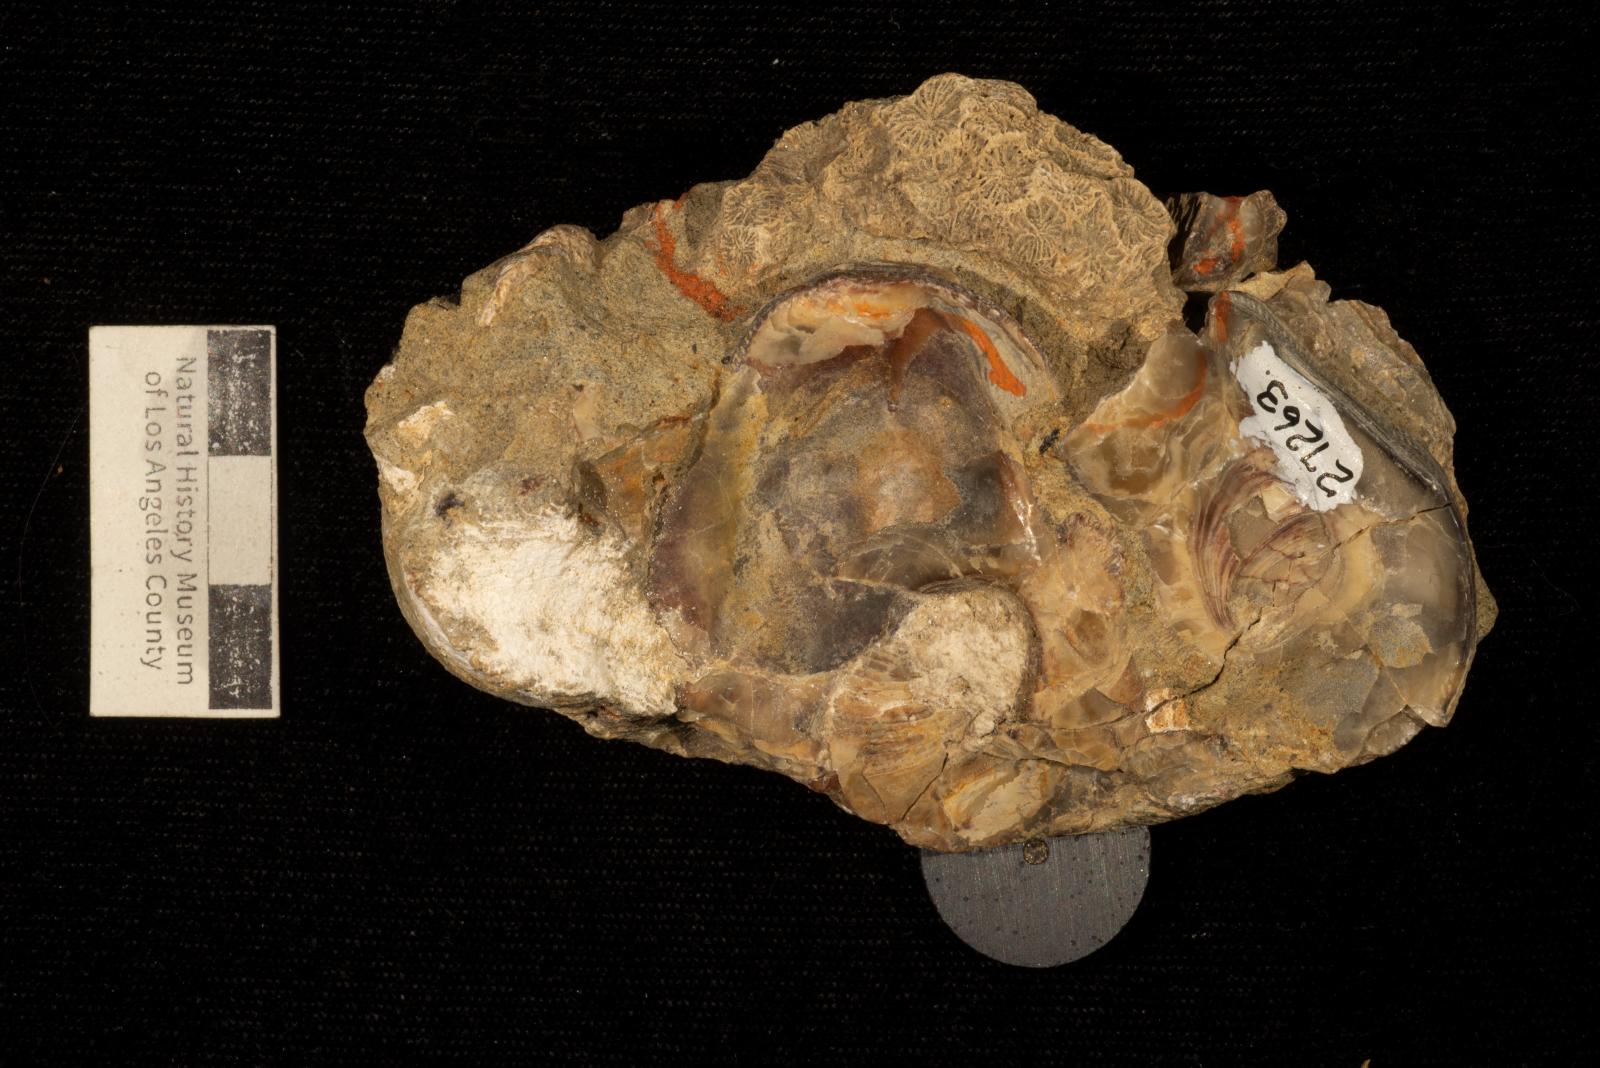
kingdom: Animalia
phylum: Cnidaria
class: Anthozoa
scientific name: Anthozoa
